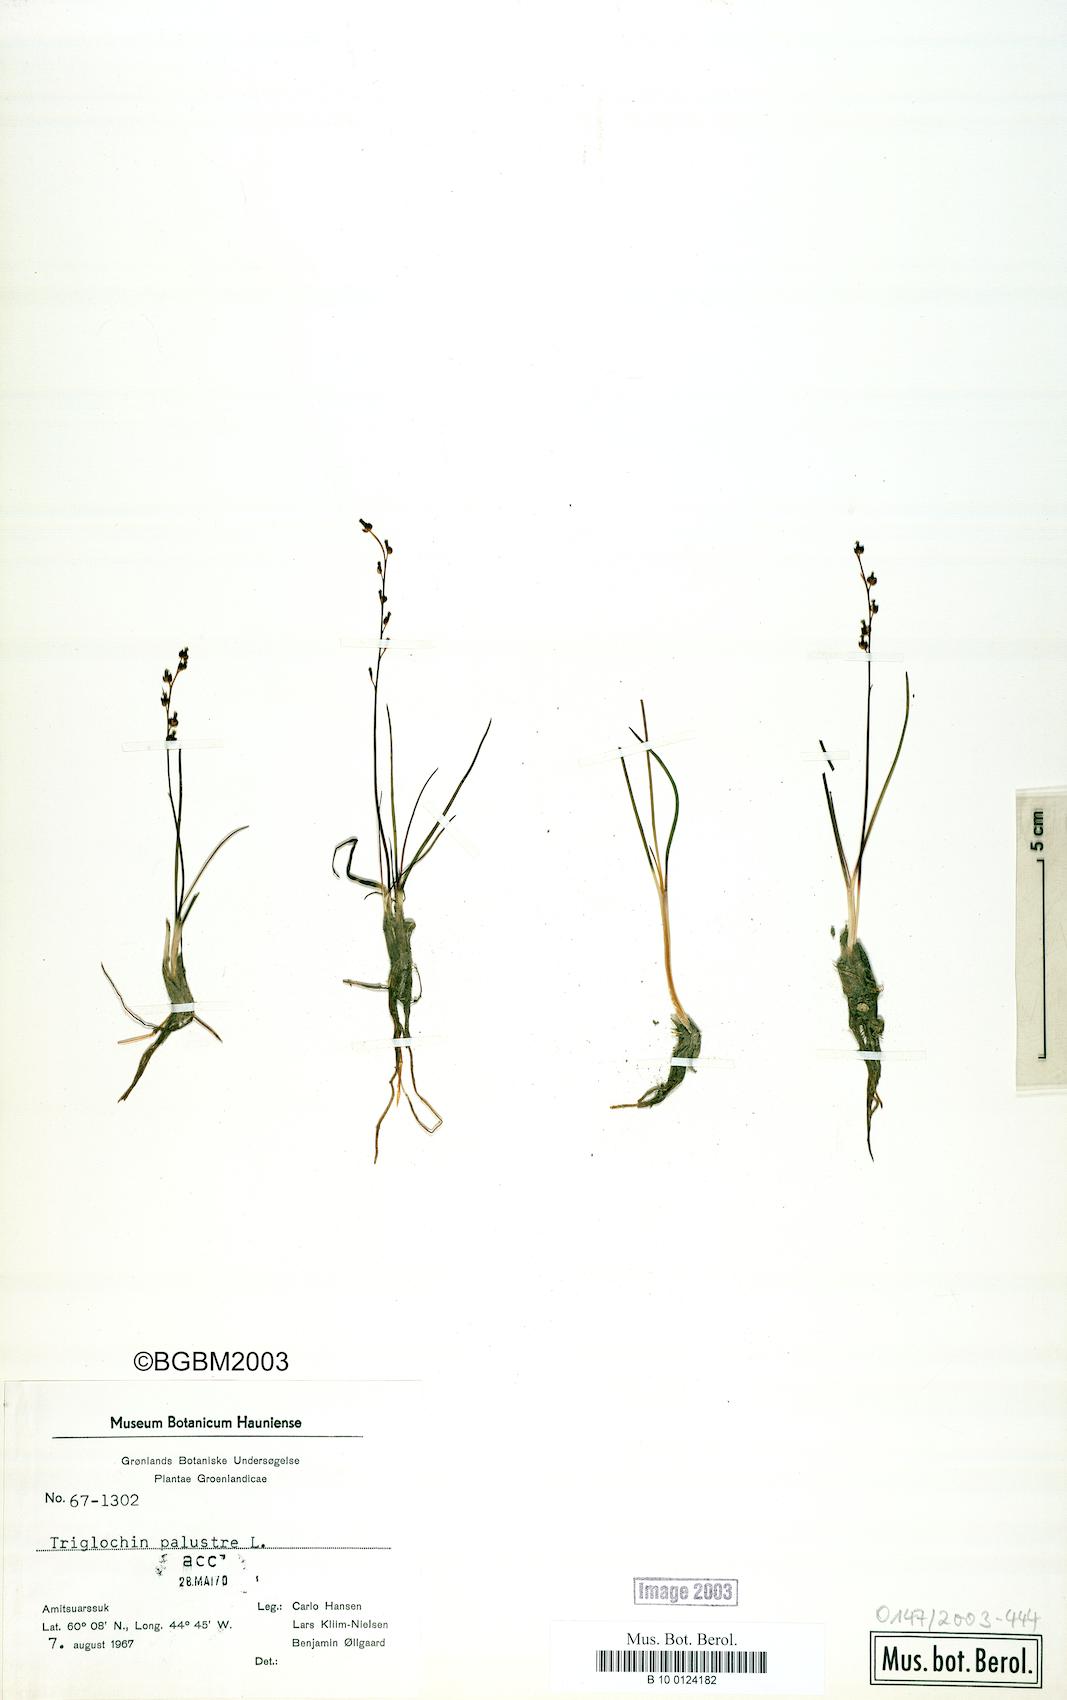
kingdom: Plantae
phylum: Tracheophyta
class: Liliopsida
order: Alismatales
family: Juncaginaceae
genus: Triglochin
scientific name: Triglochin palustris
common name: Marsh arrowgrass
